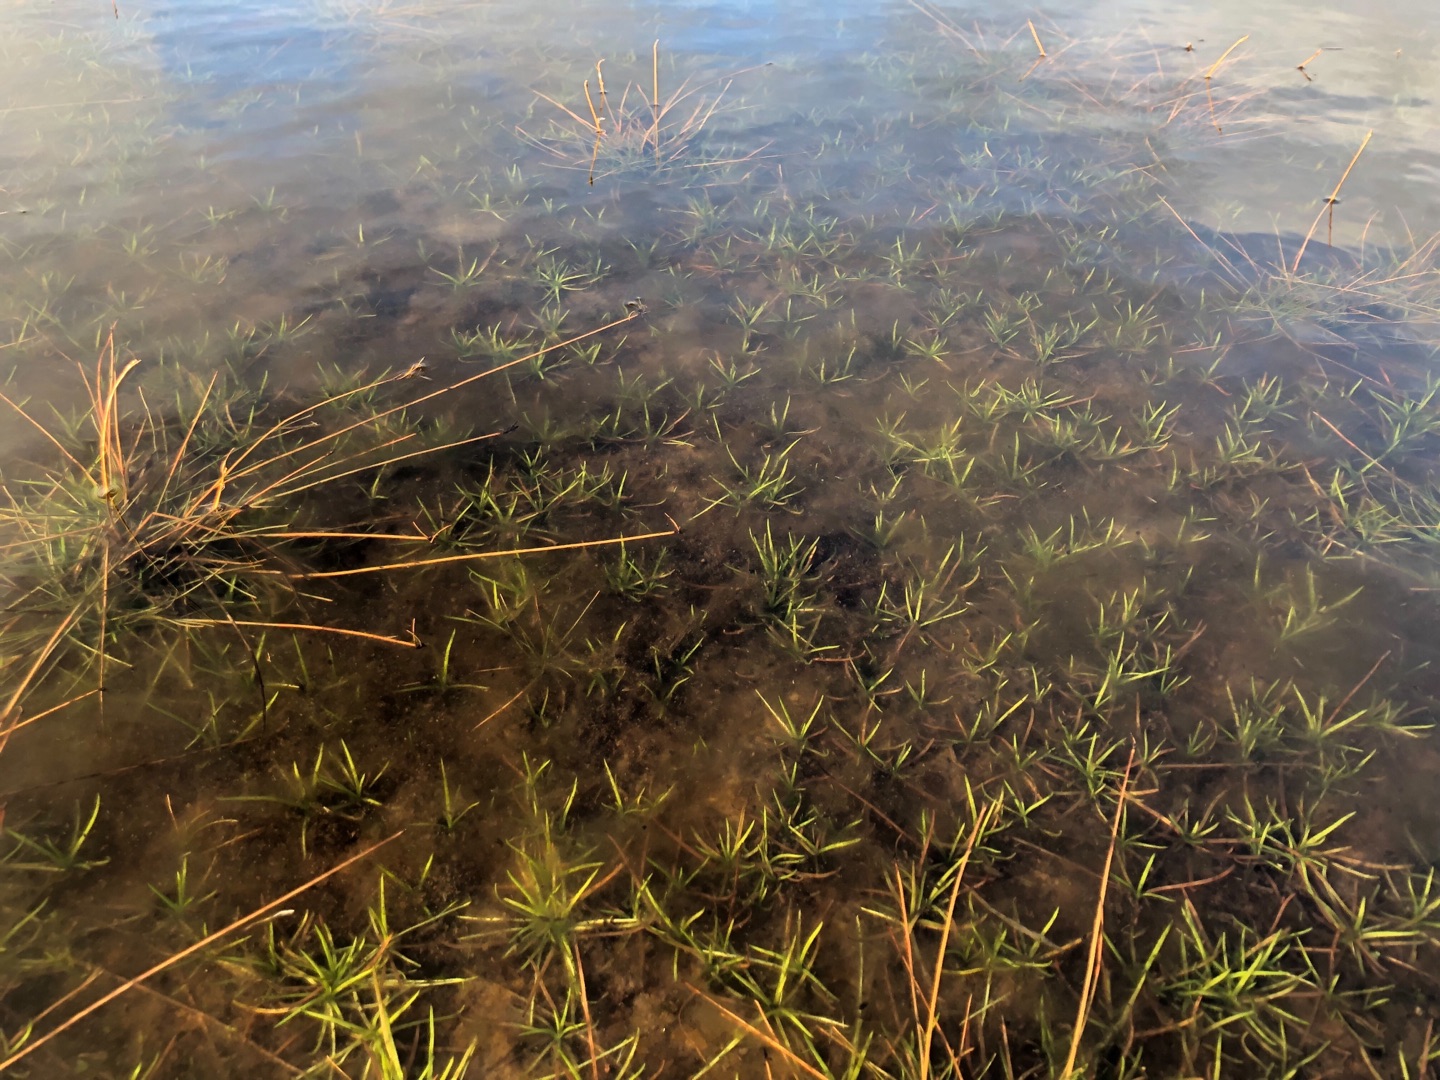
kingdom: Plantae
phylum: Tracheophyta
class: Magnoliopsida
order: Lamiales
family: Plantaginaceae
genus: Littorella
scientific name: Littorella uniflora
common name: Strandbo
